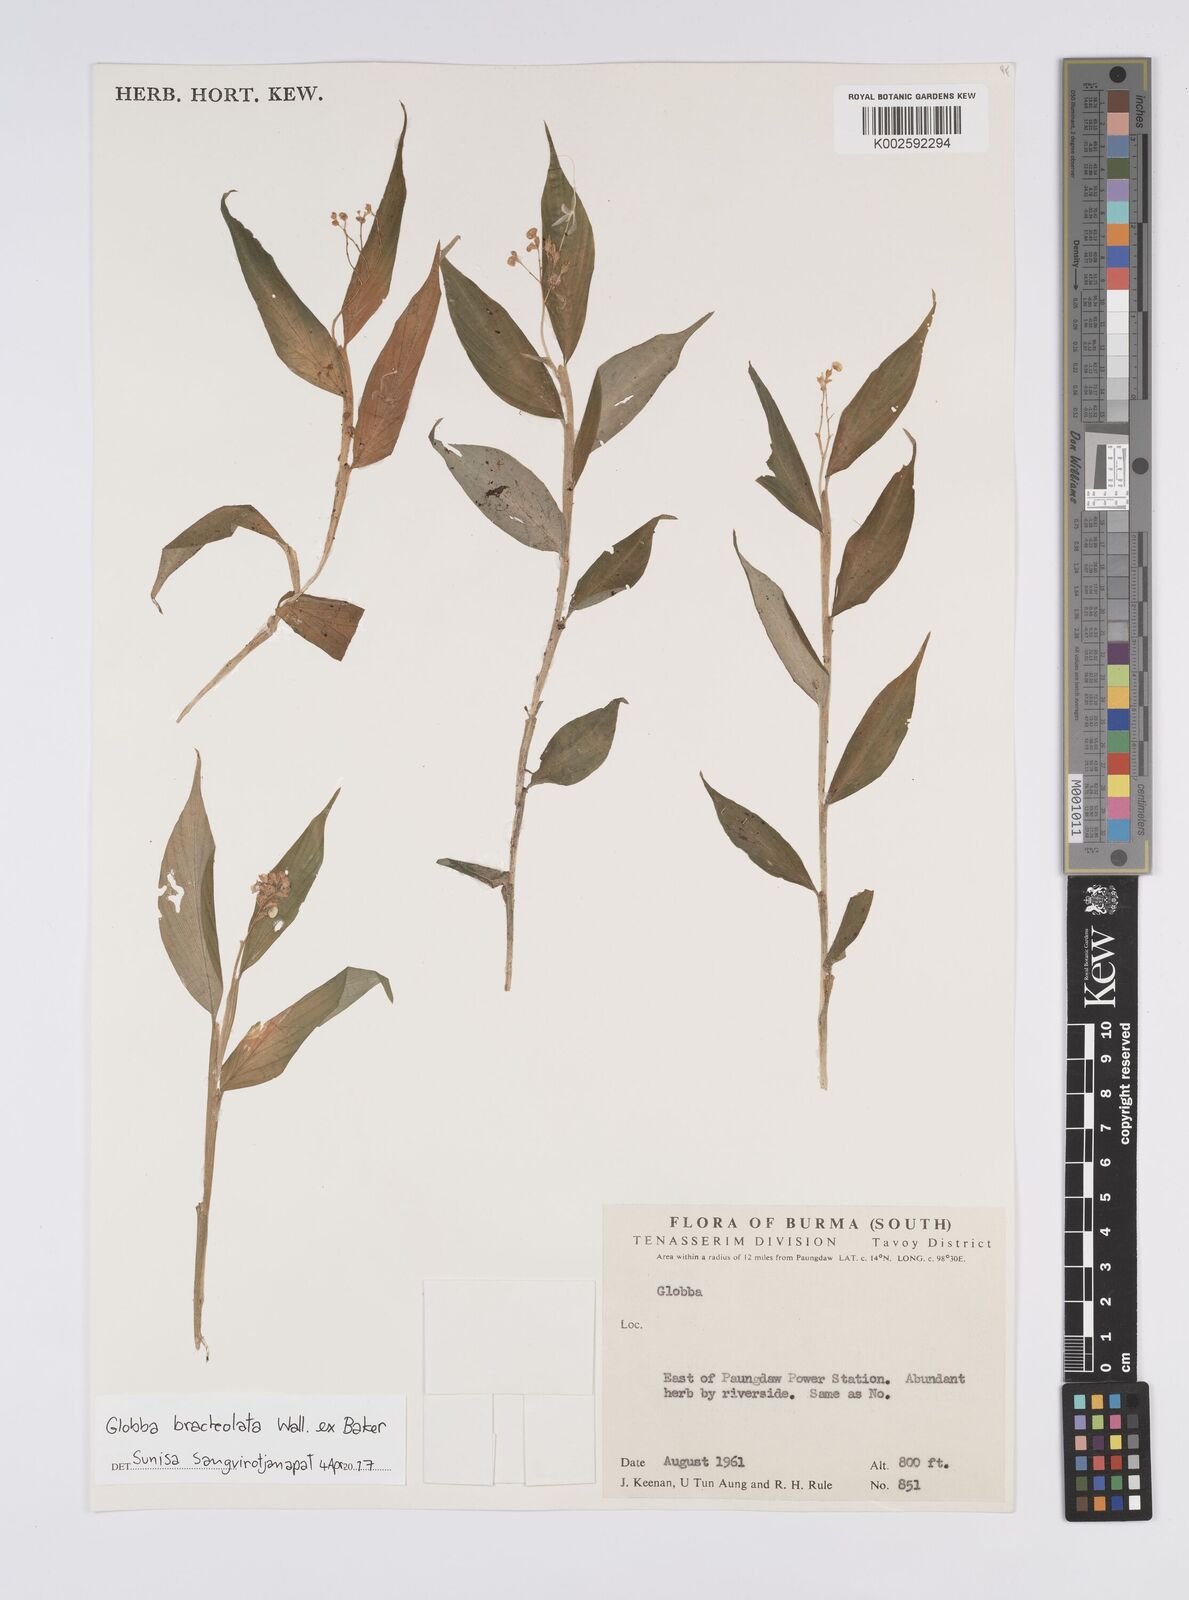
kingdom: Plantae
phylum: Tracheophyta
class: Liliopsida
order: Zingiberales
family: Zingiberaceae
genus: Globba
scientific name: Globba bracteolata
